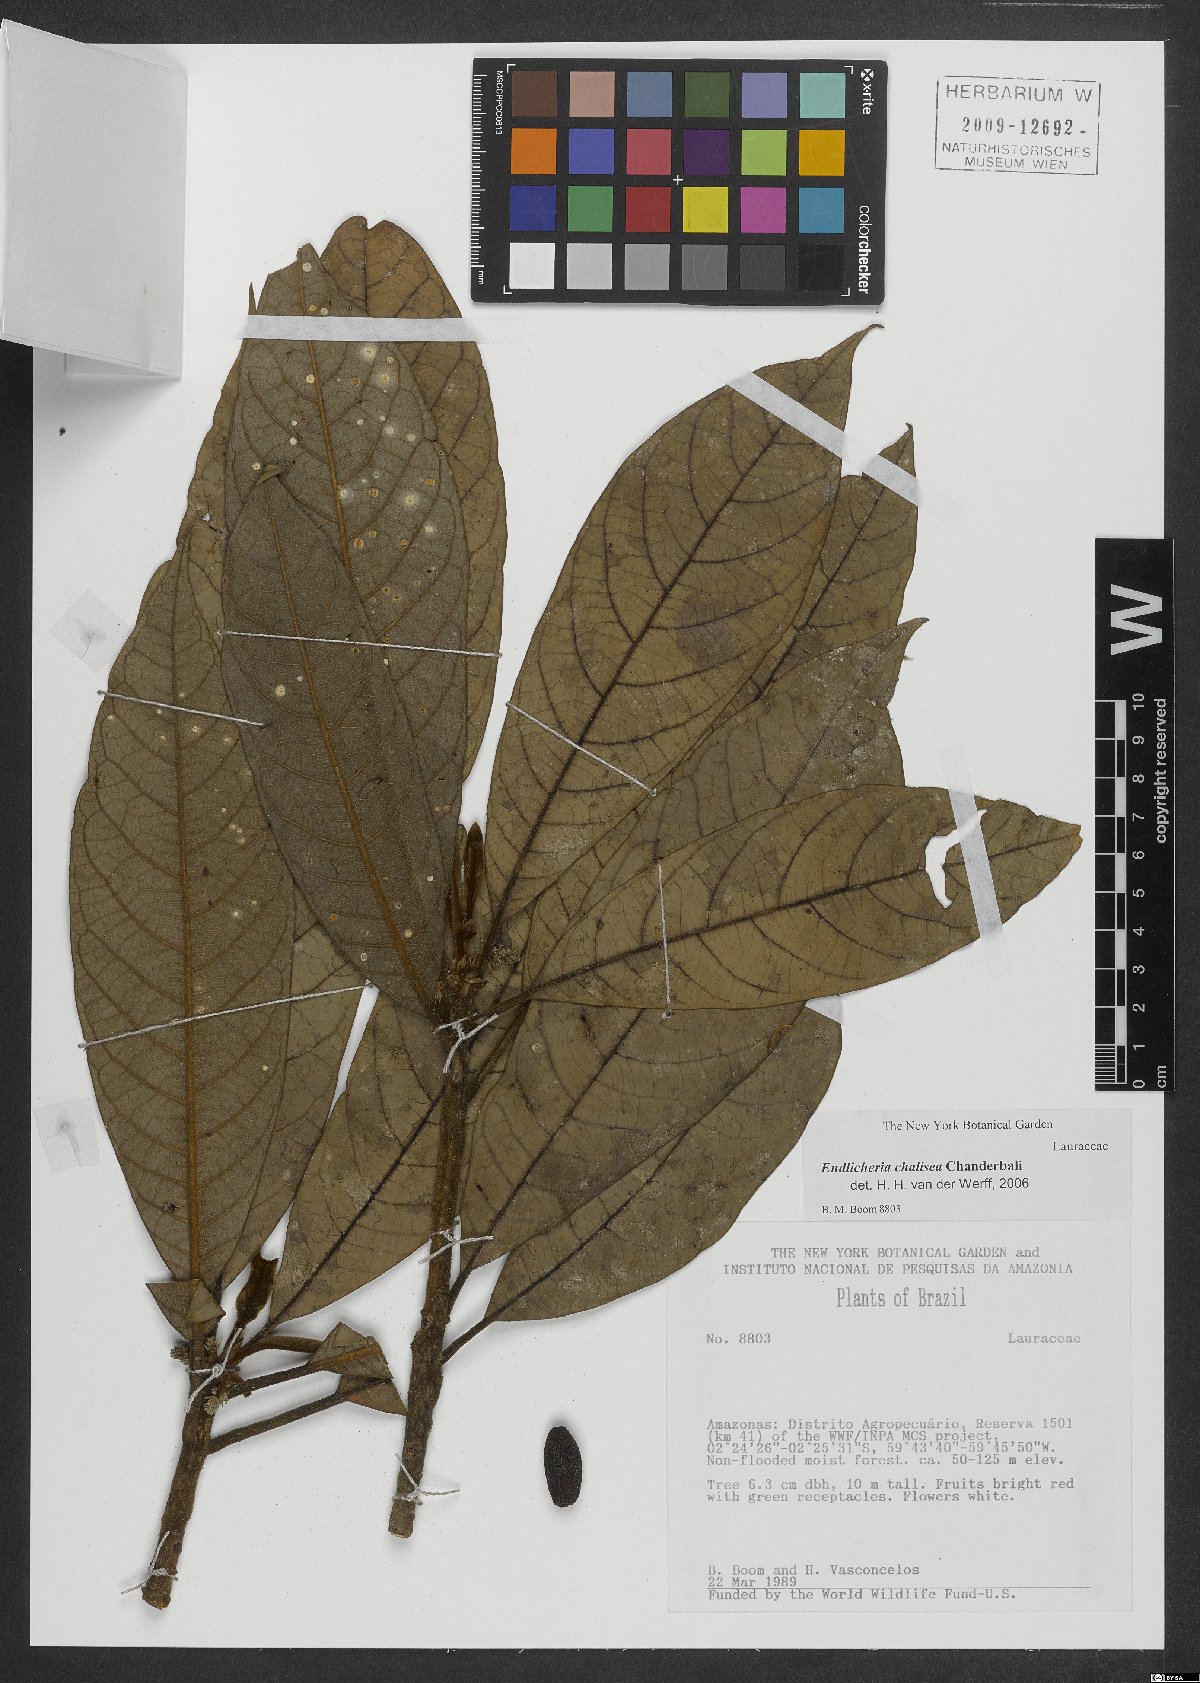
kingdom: Plantae
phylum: Tracheophyta
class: Magnoliopsida
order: Laurales
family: Lauraceae
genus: Endlicheria
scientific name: Endlicheria chalisea
